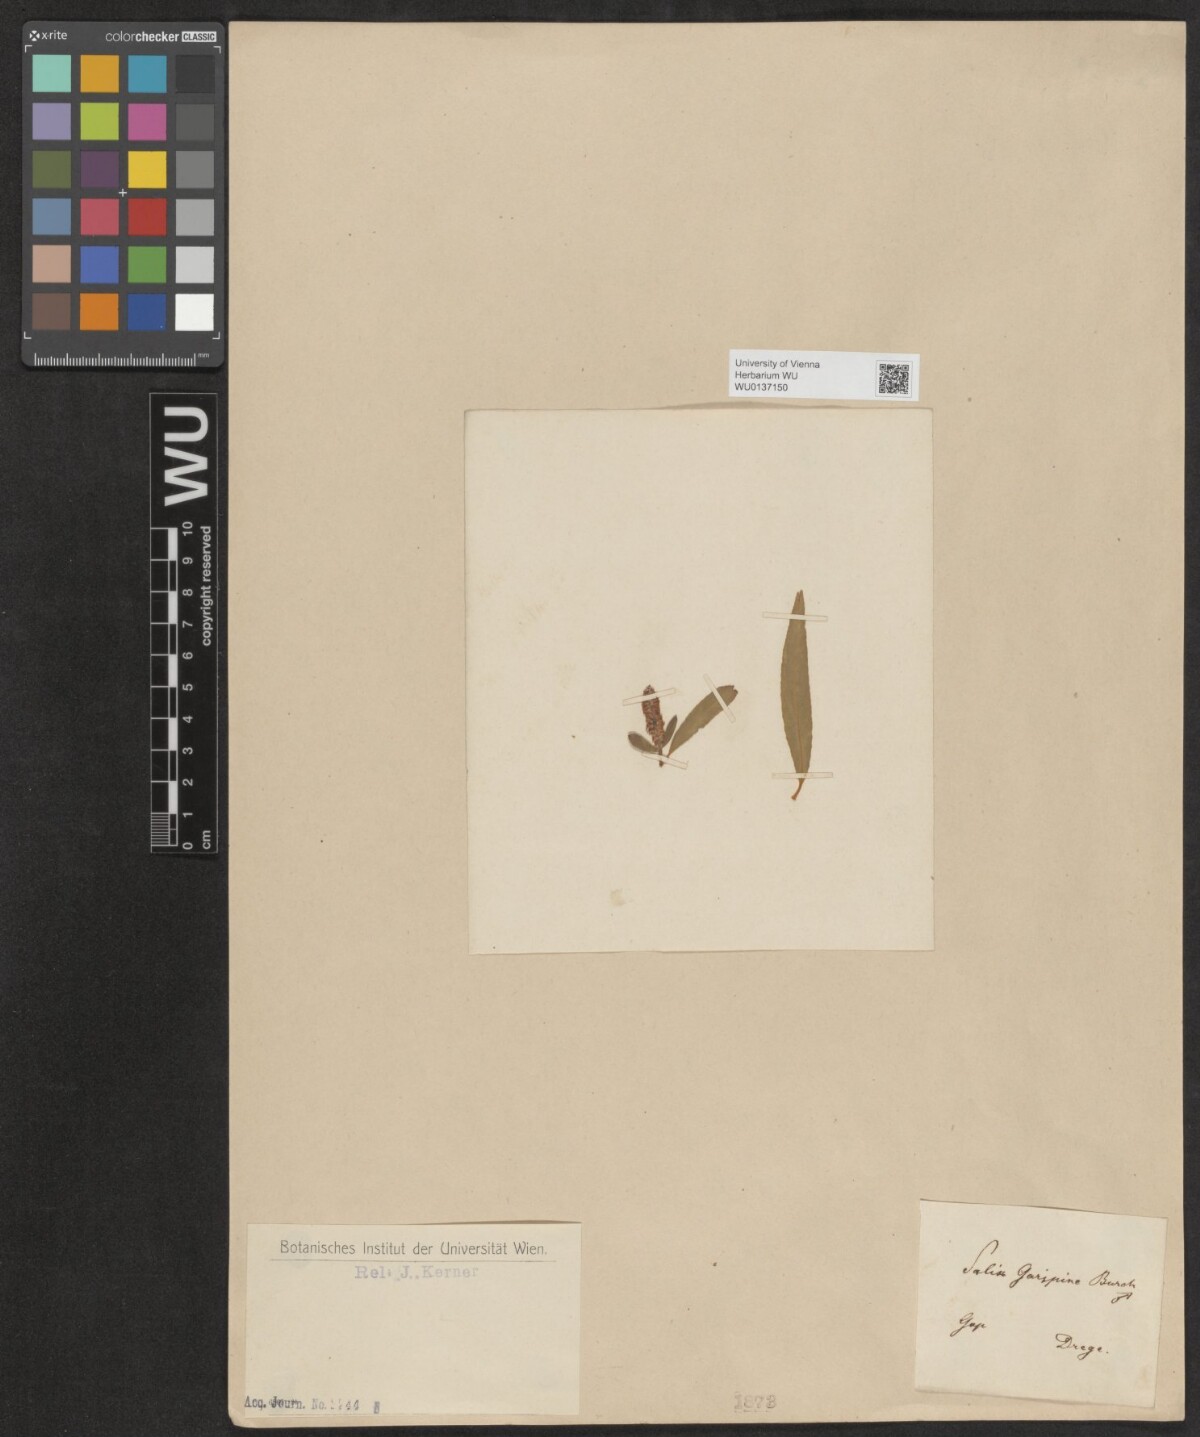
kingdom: Plantae
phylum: Tracheophyta
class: Magnoliopsida
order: Malpighiales
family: Salicaceae
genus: Salix
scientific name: Salix mucronata
